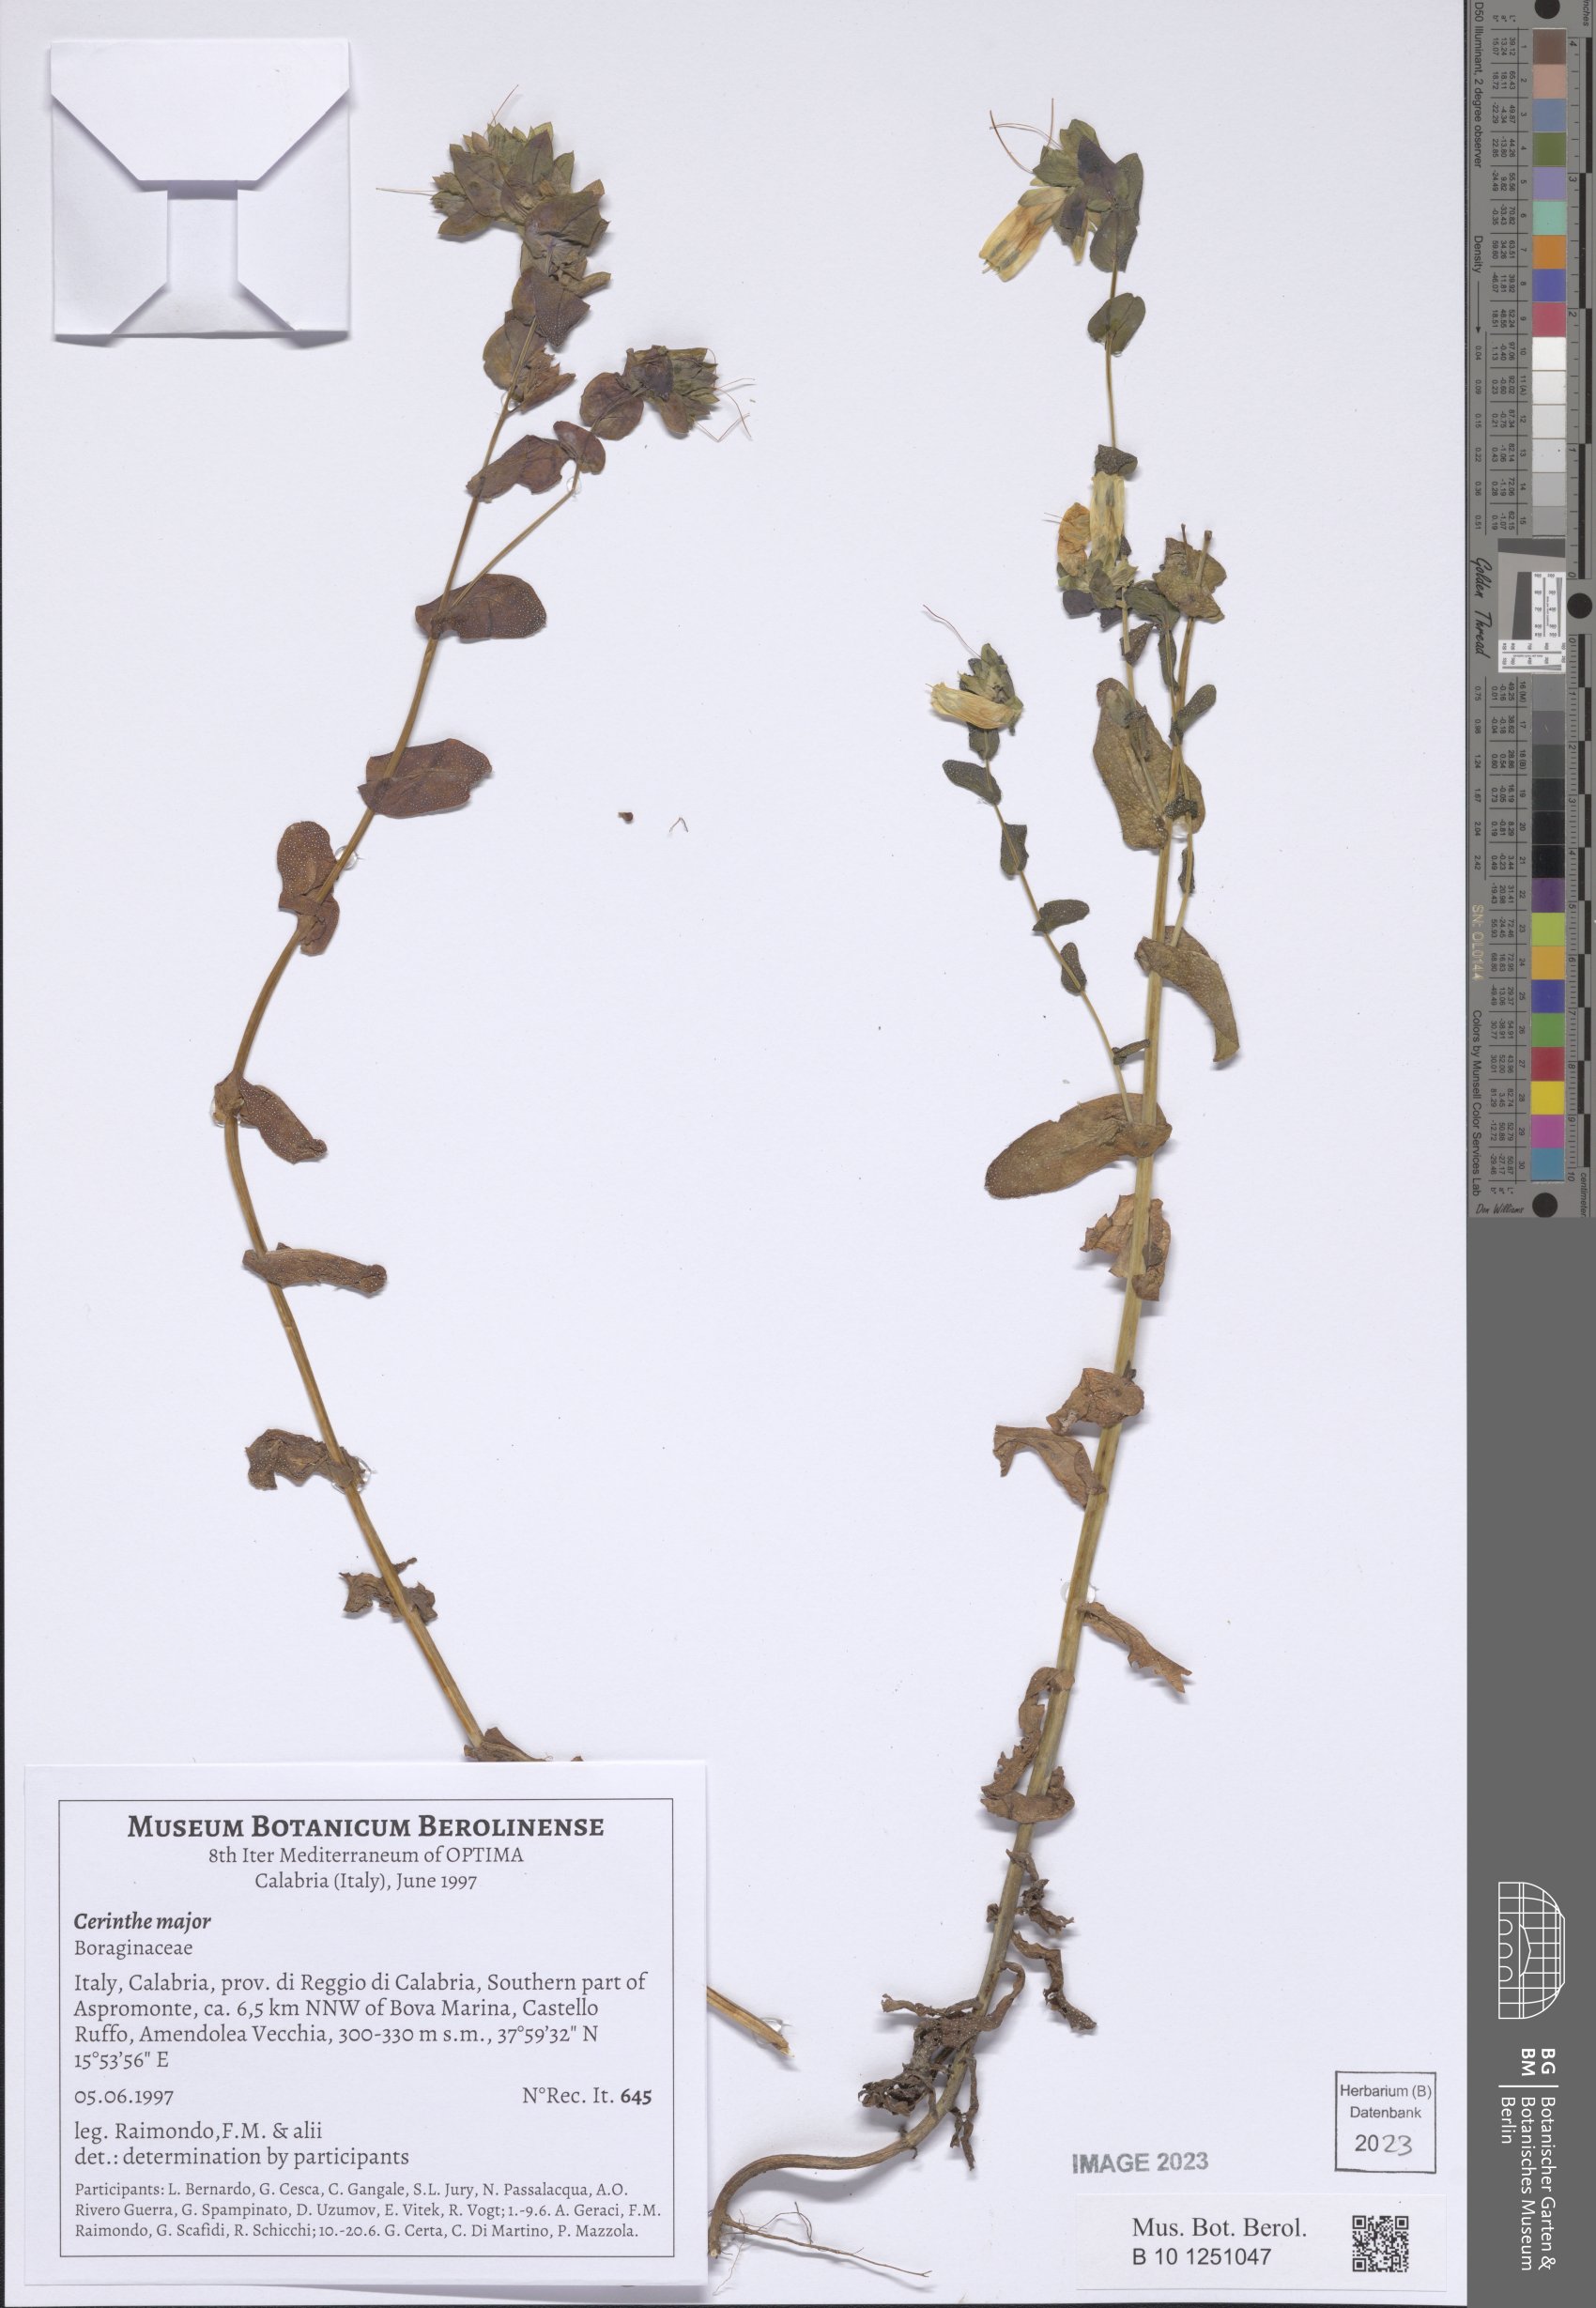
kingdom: Plantae
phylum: Tracheophyta
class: Magnoliopsida
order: Boraginales
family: Boraginaceae
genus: Cerinthe
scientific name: Cerinthe major
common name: Greater honeywort
